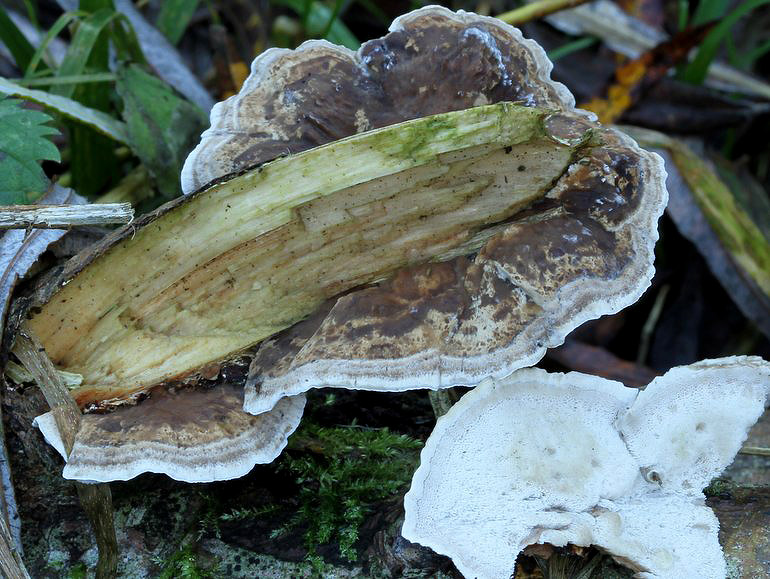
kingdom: Fungi
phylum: Basidiomycota
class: Agaricomycetes
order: Polyporales
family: Phanerochaetaceae
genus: Bjerkandera
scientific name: Bjerkandera fumosa
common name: grågul sodporesvamp
